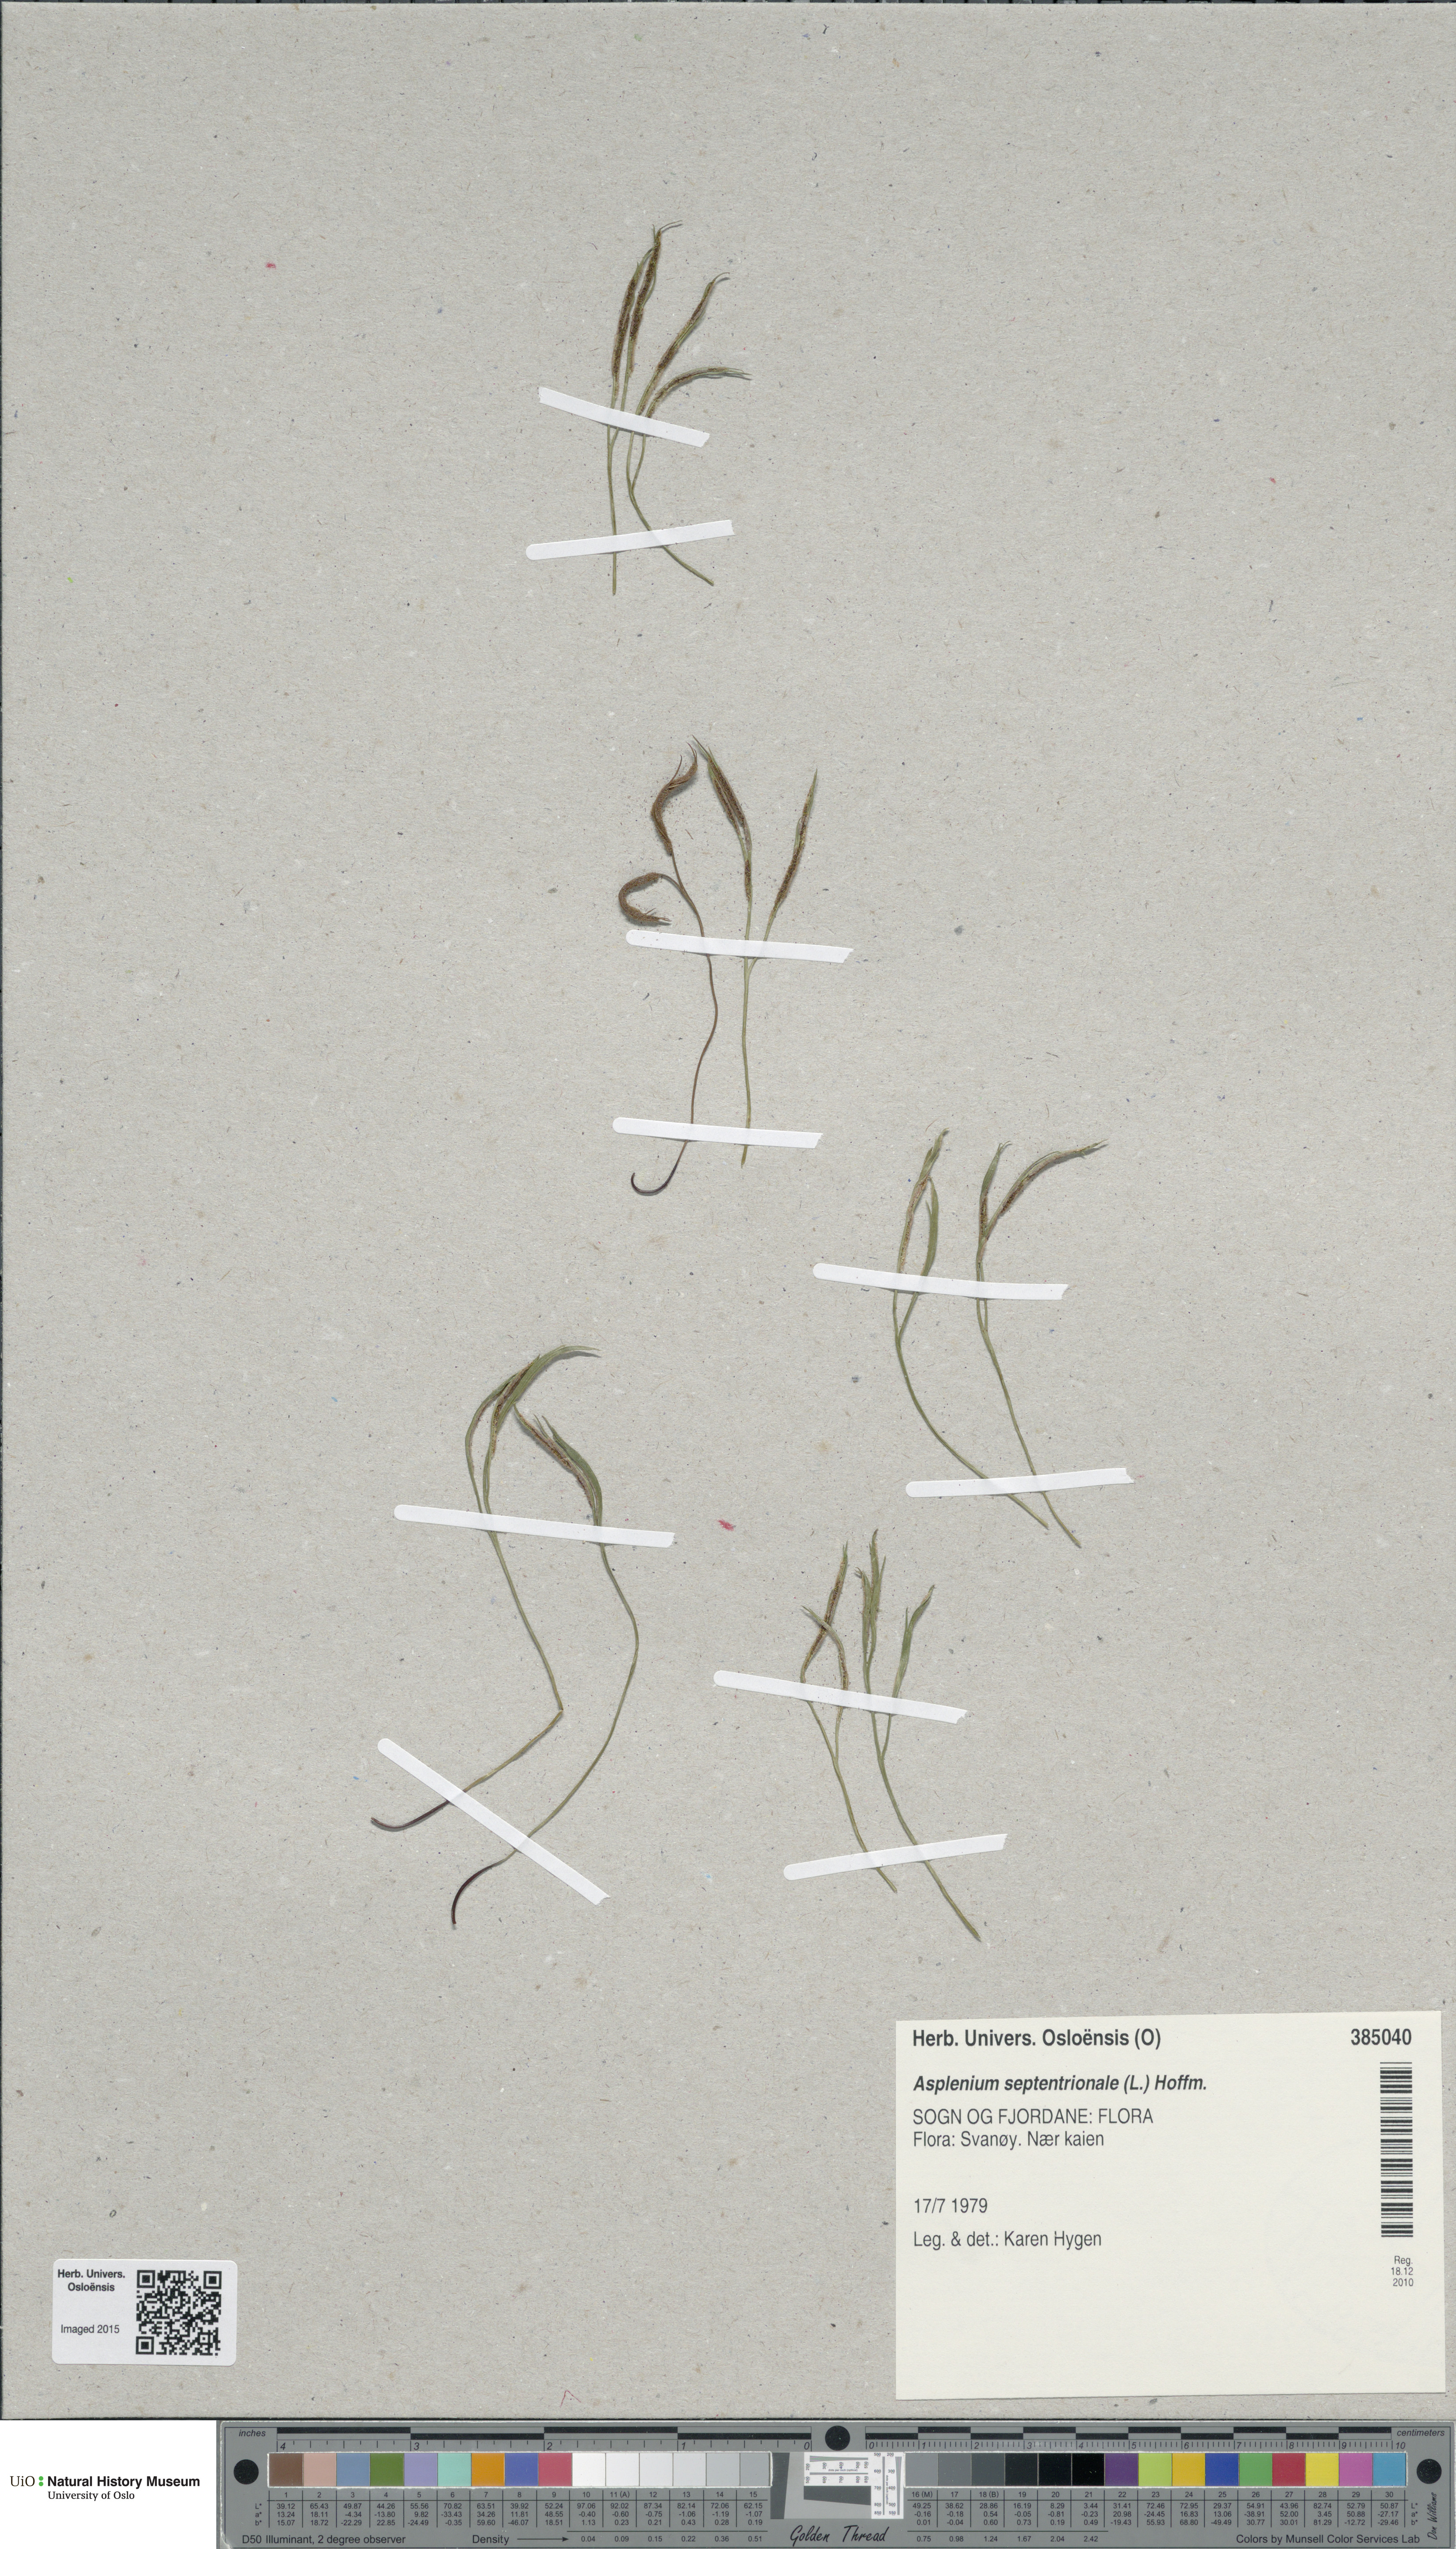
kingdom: Plantae
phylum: Tracheophyta
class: Polypodiopsida
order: Polypodiales
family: Aspleniaceae
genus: Asplenium
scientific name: Asplenium septentrionale
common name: Forked spleenwort
